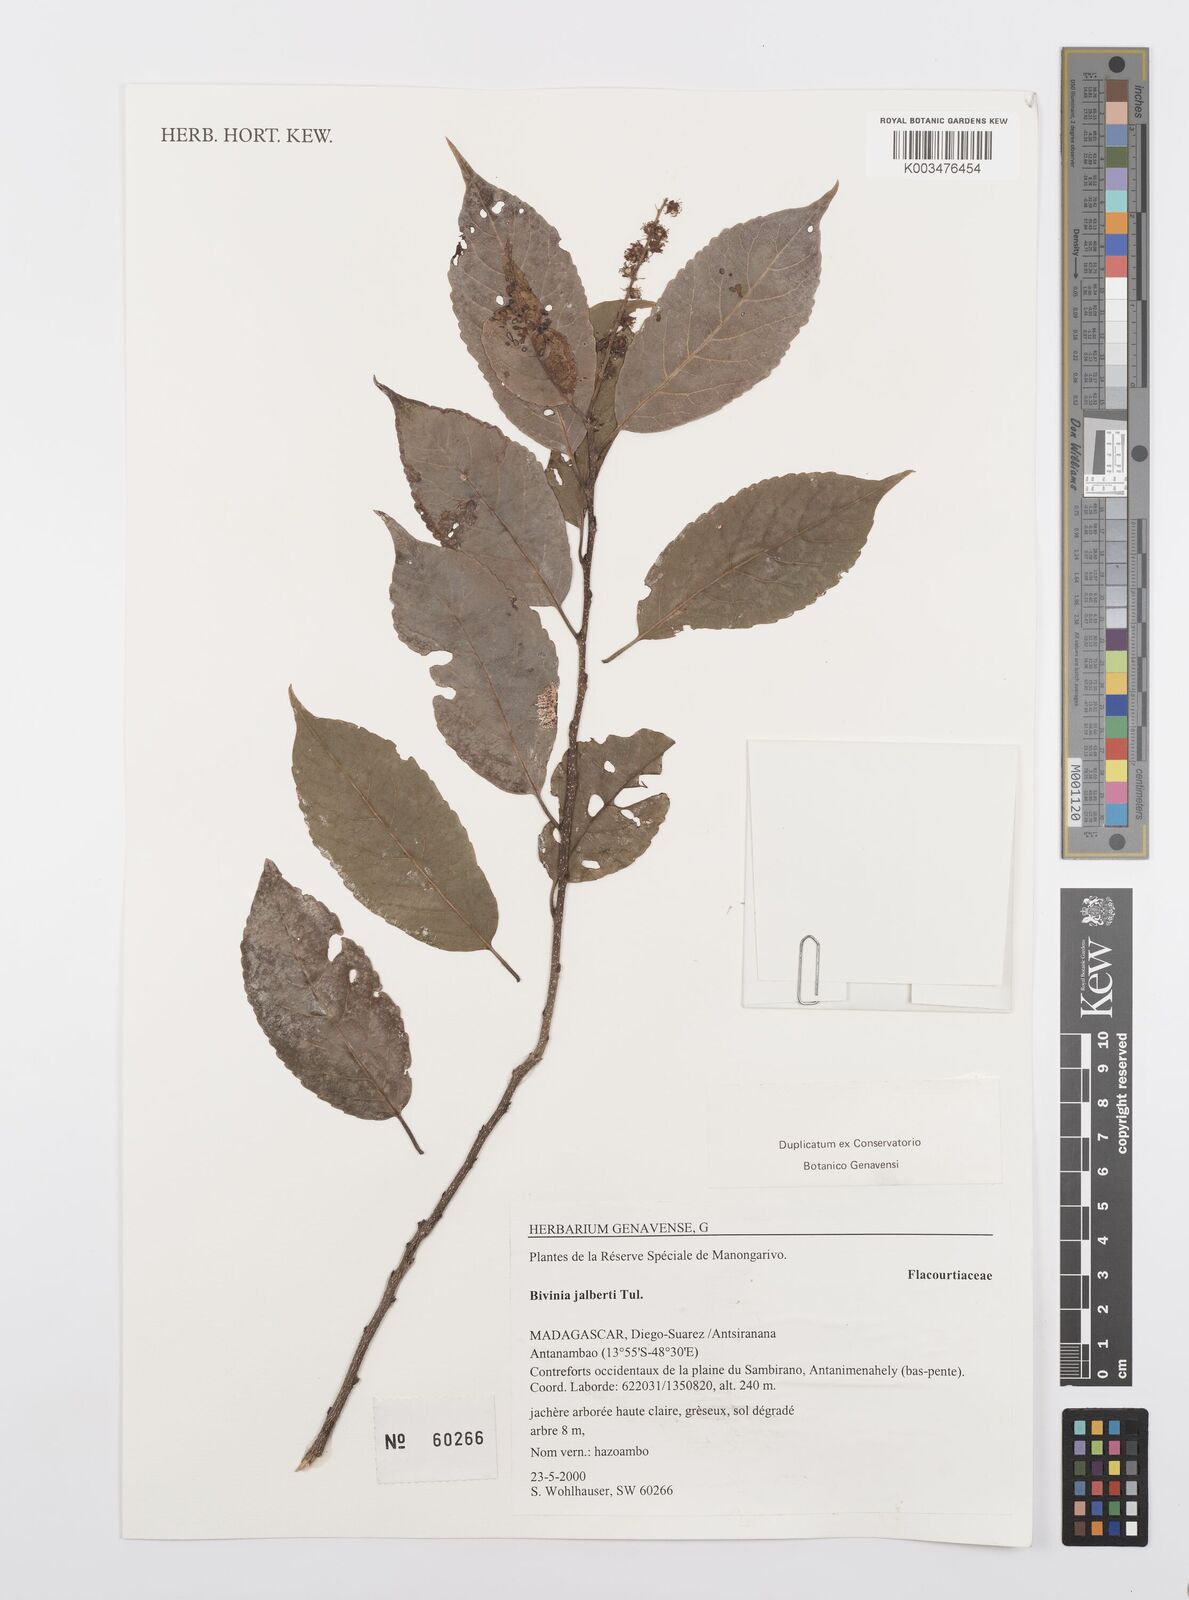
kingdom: Plantae
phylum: Tracheophyta
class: Magnoliopsida
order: Malpighiales
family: Salicaceae
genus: Bivinia
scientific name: Bivinia jalbertii
